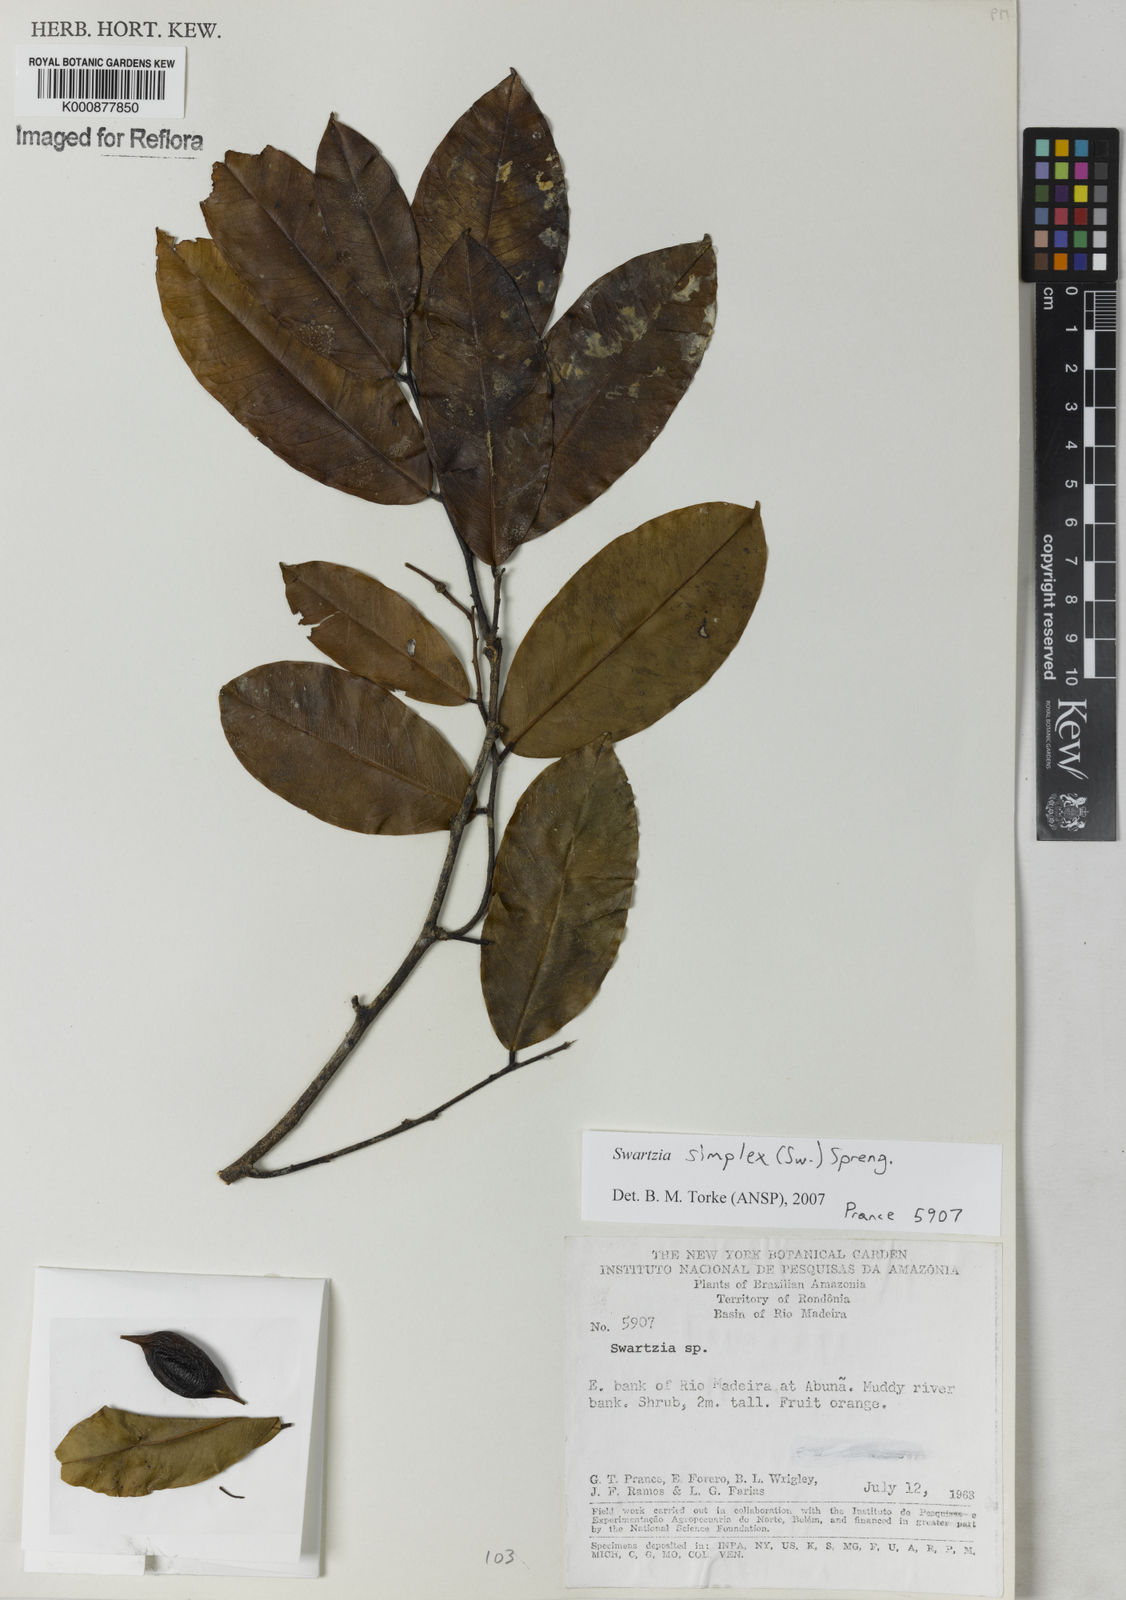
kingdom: Plantae
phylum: Tracheophyta
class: Magnoliopsida
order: Fabales
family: Fabaceae
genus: Swartzia
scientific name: Swartzia simplex
